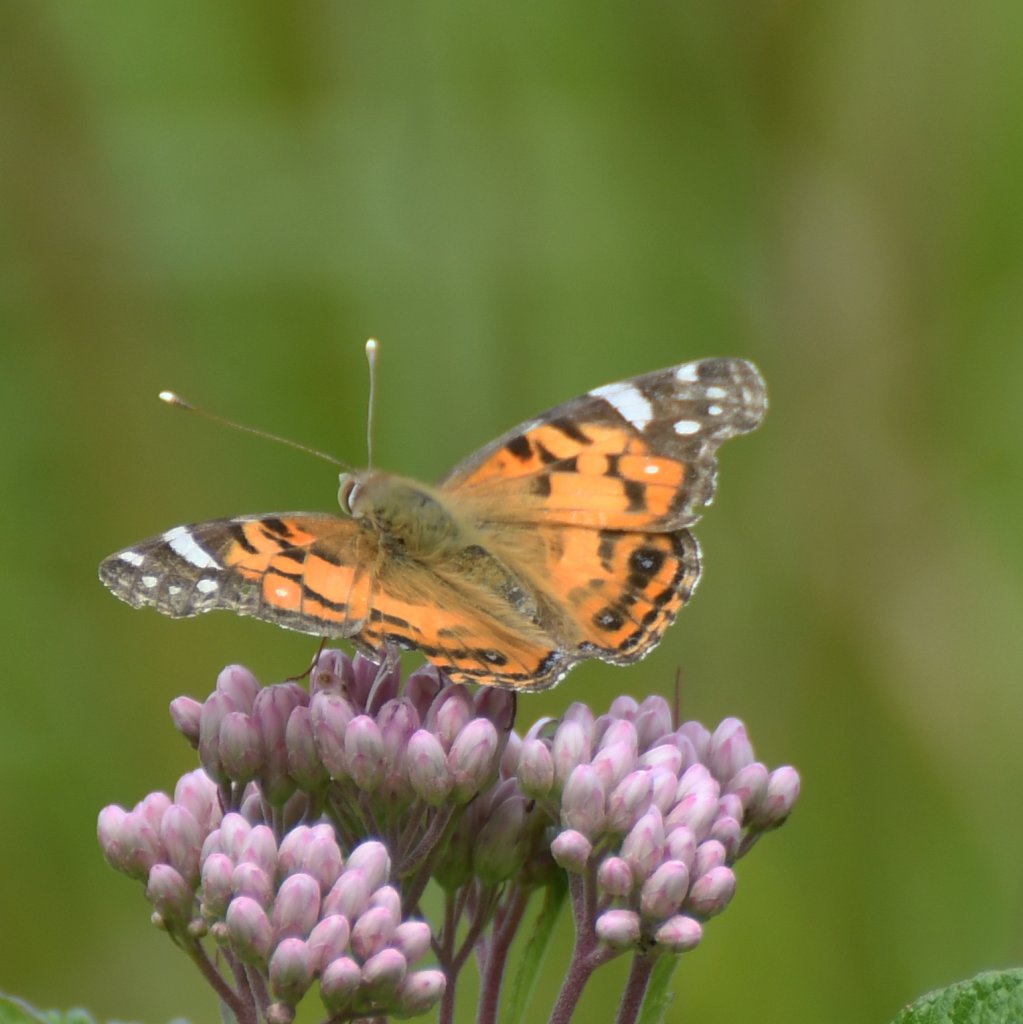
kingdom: Animalia
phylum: Arthropoda
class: Insecta
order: Lepidoptera
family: Nymphalidae
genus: Vanessa
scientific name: Vanessa virginiensis
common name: American Lady
